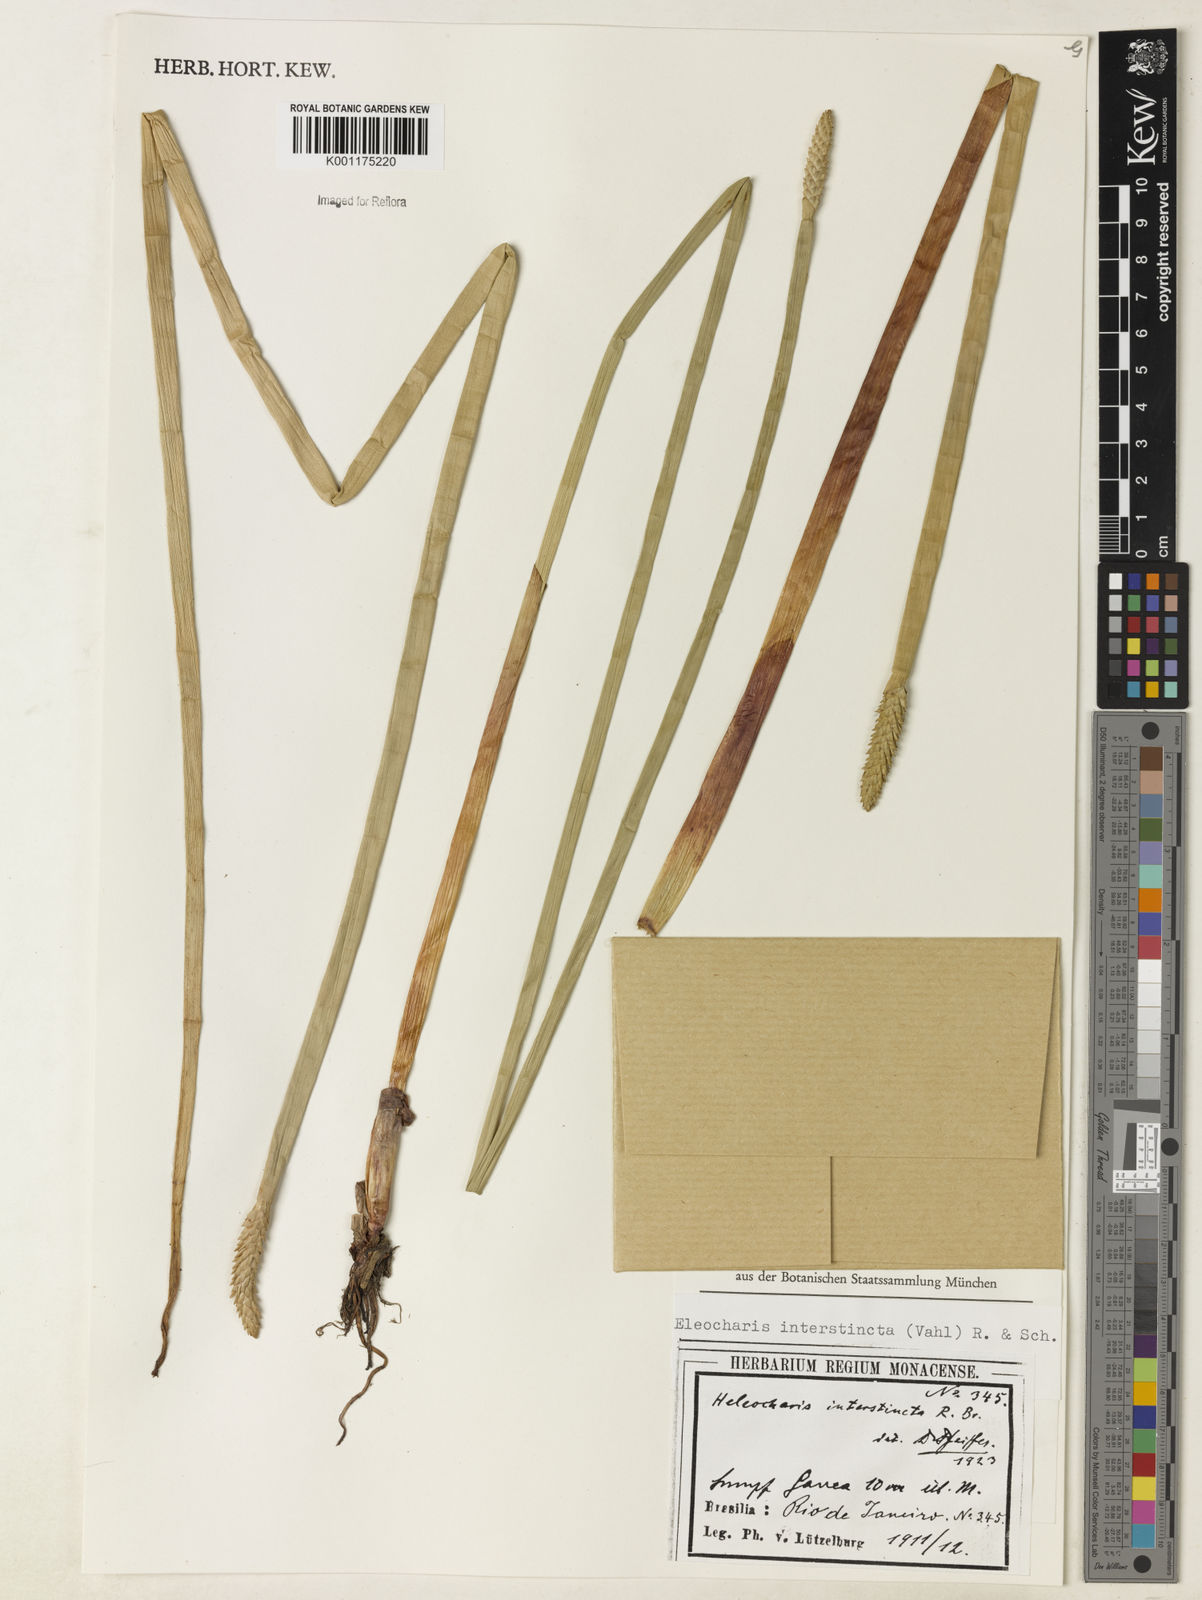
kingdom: Plantae
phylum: Tracheophyta
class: Liliopsida
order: Poales
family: Cyperaceae
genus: Eleocharis
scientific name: Eleocharis interstincta
